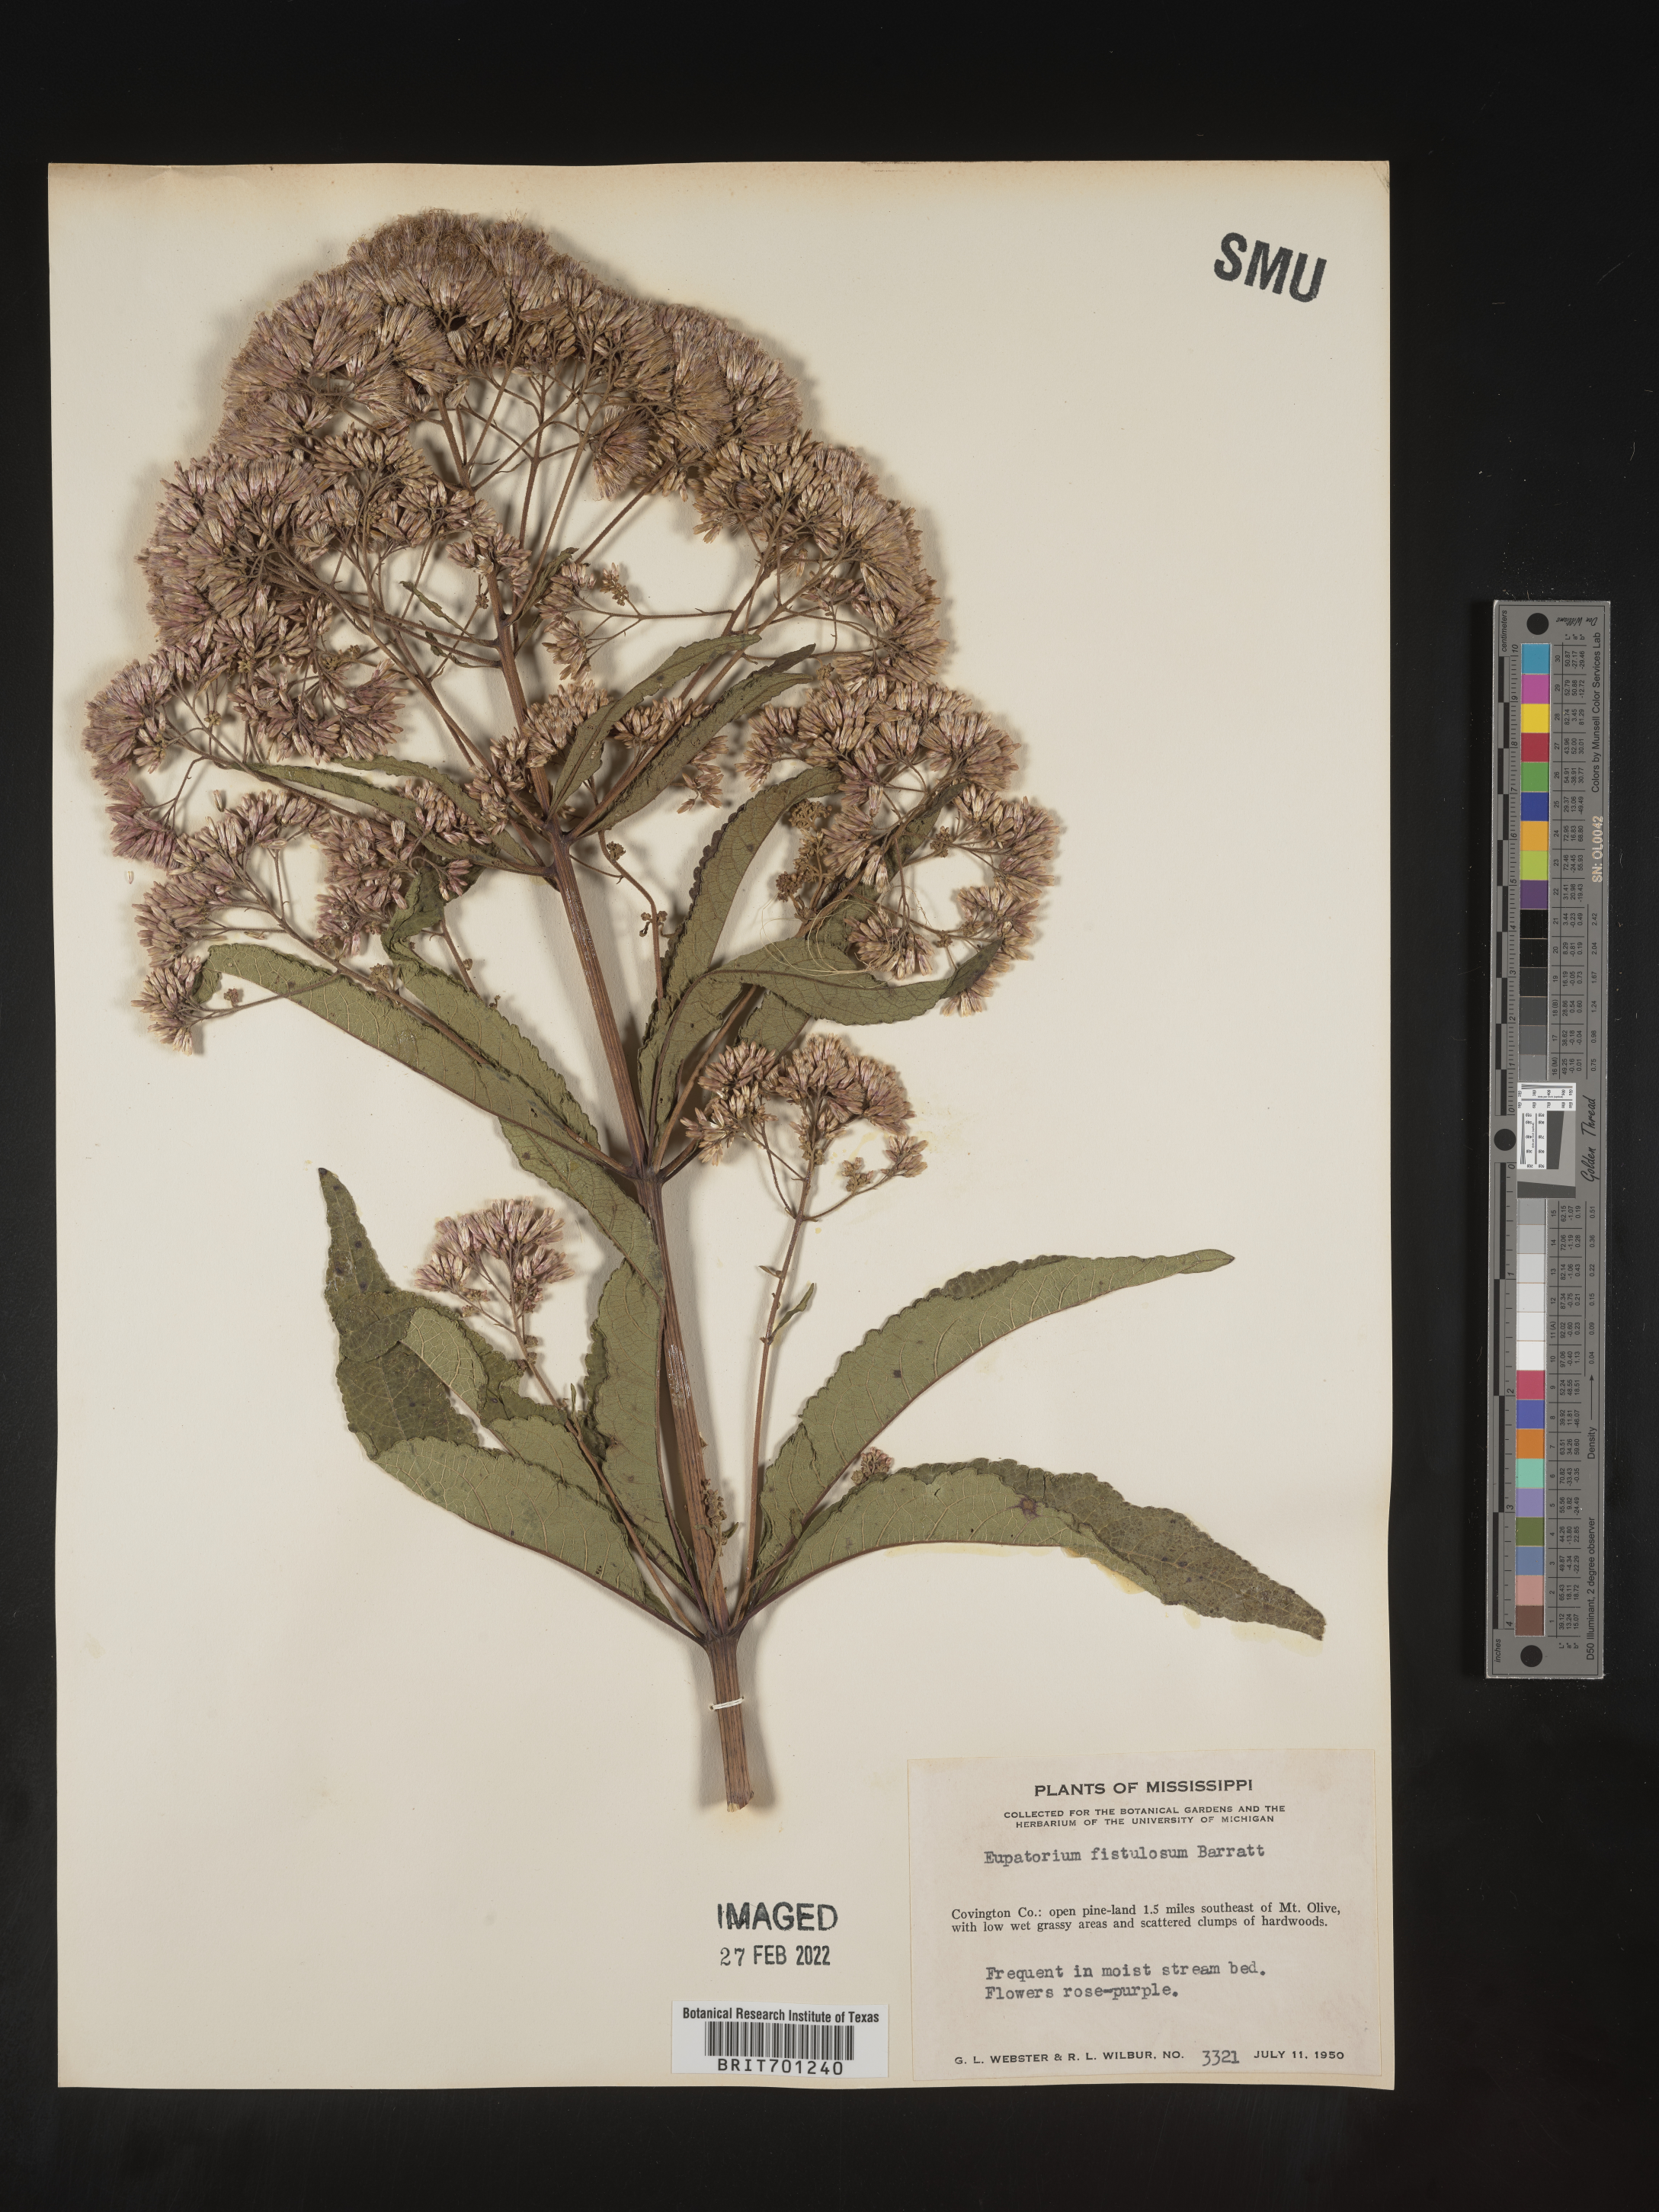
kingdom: Plantae
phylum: Tracheophyta
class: Magnoliopsida
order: Asterales
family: Asteraceae
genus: Eutrochium
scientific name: Eutrochium fistulosum
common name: Trumpetweed
